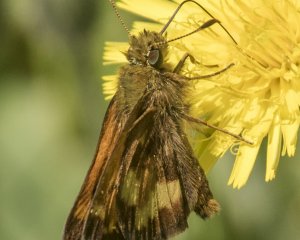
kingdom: Animalia
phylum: Arthropoda
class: Insecta
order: Lepidoptera
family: Hesperiidae
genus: Lon
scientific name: Lon hobomok
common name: Hobomok Skipper
